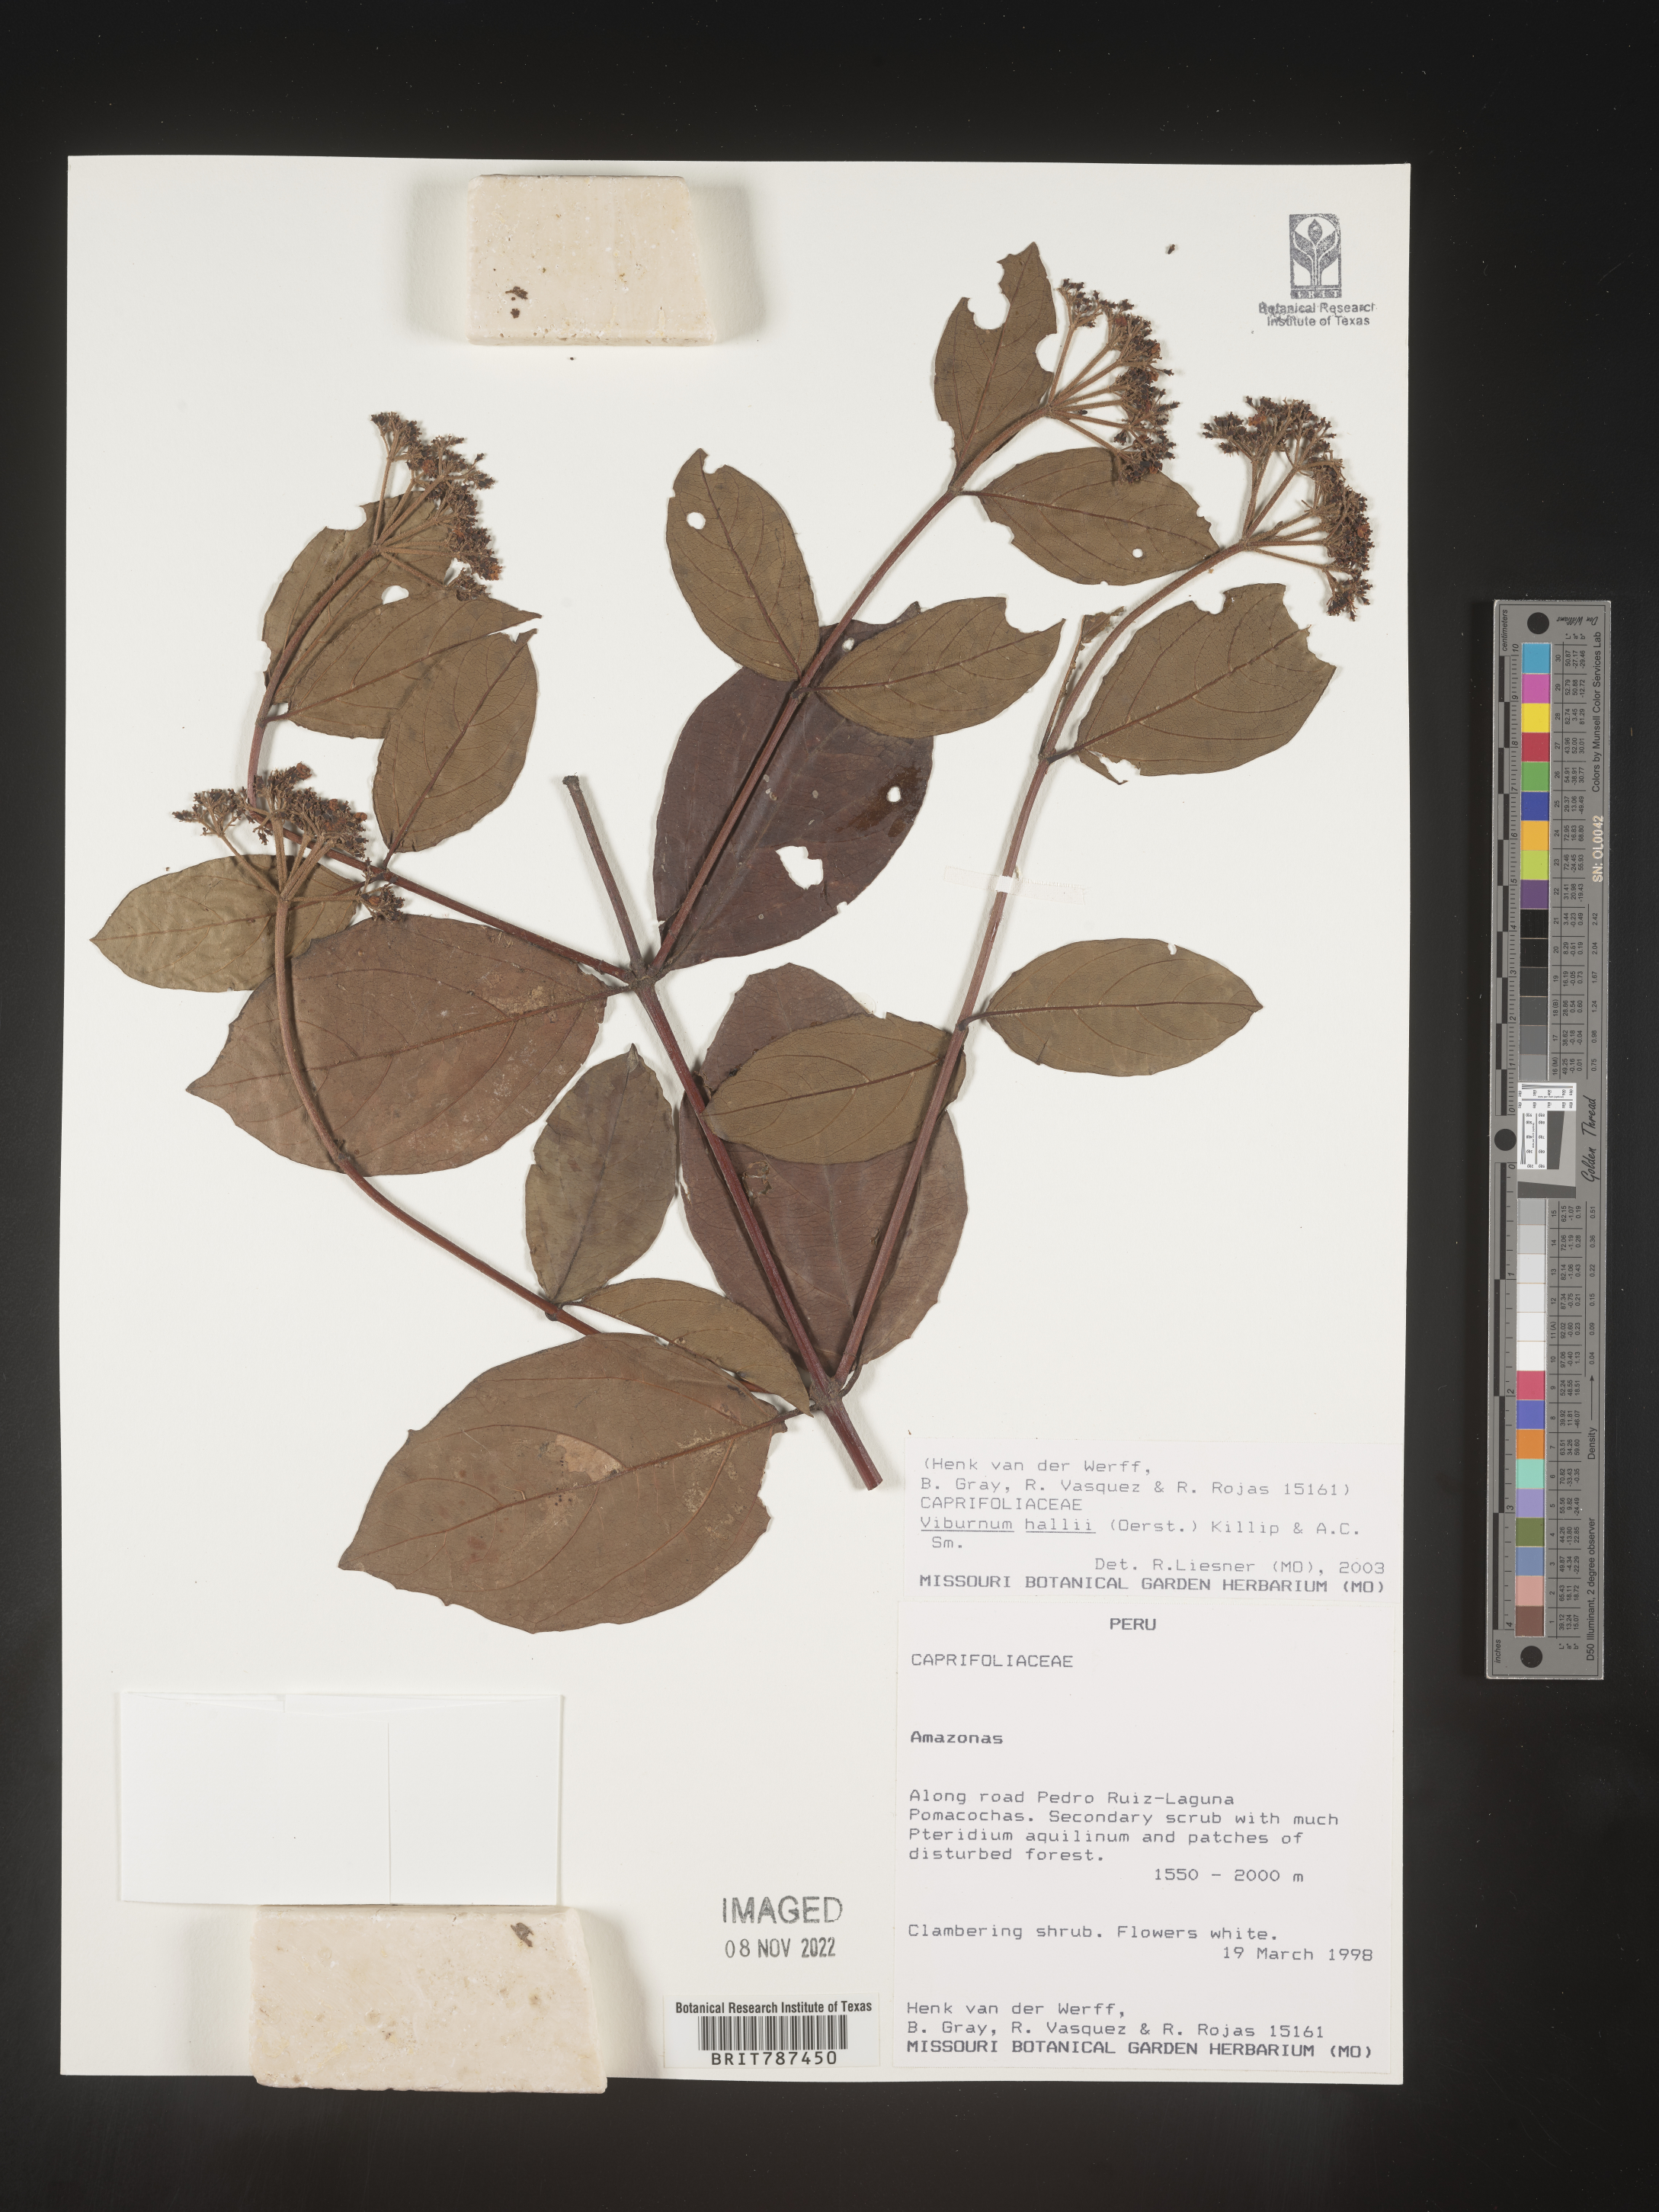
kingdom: Plantae
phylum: Tracheophyta
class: Magnoliopsida
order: Dipsacales
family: Viburnaceae
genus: Viburnum
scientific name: Viburnum
